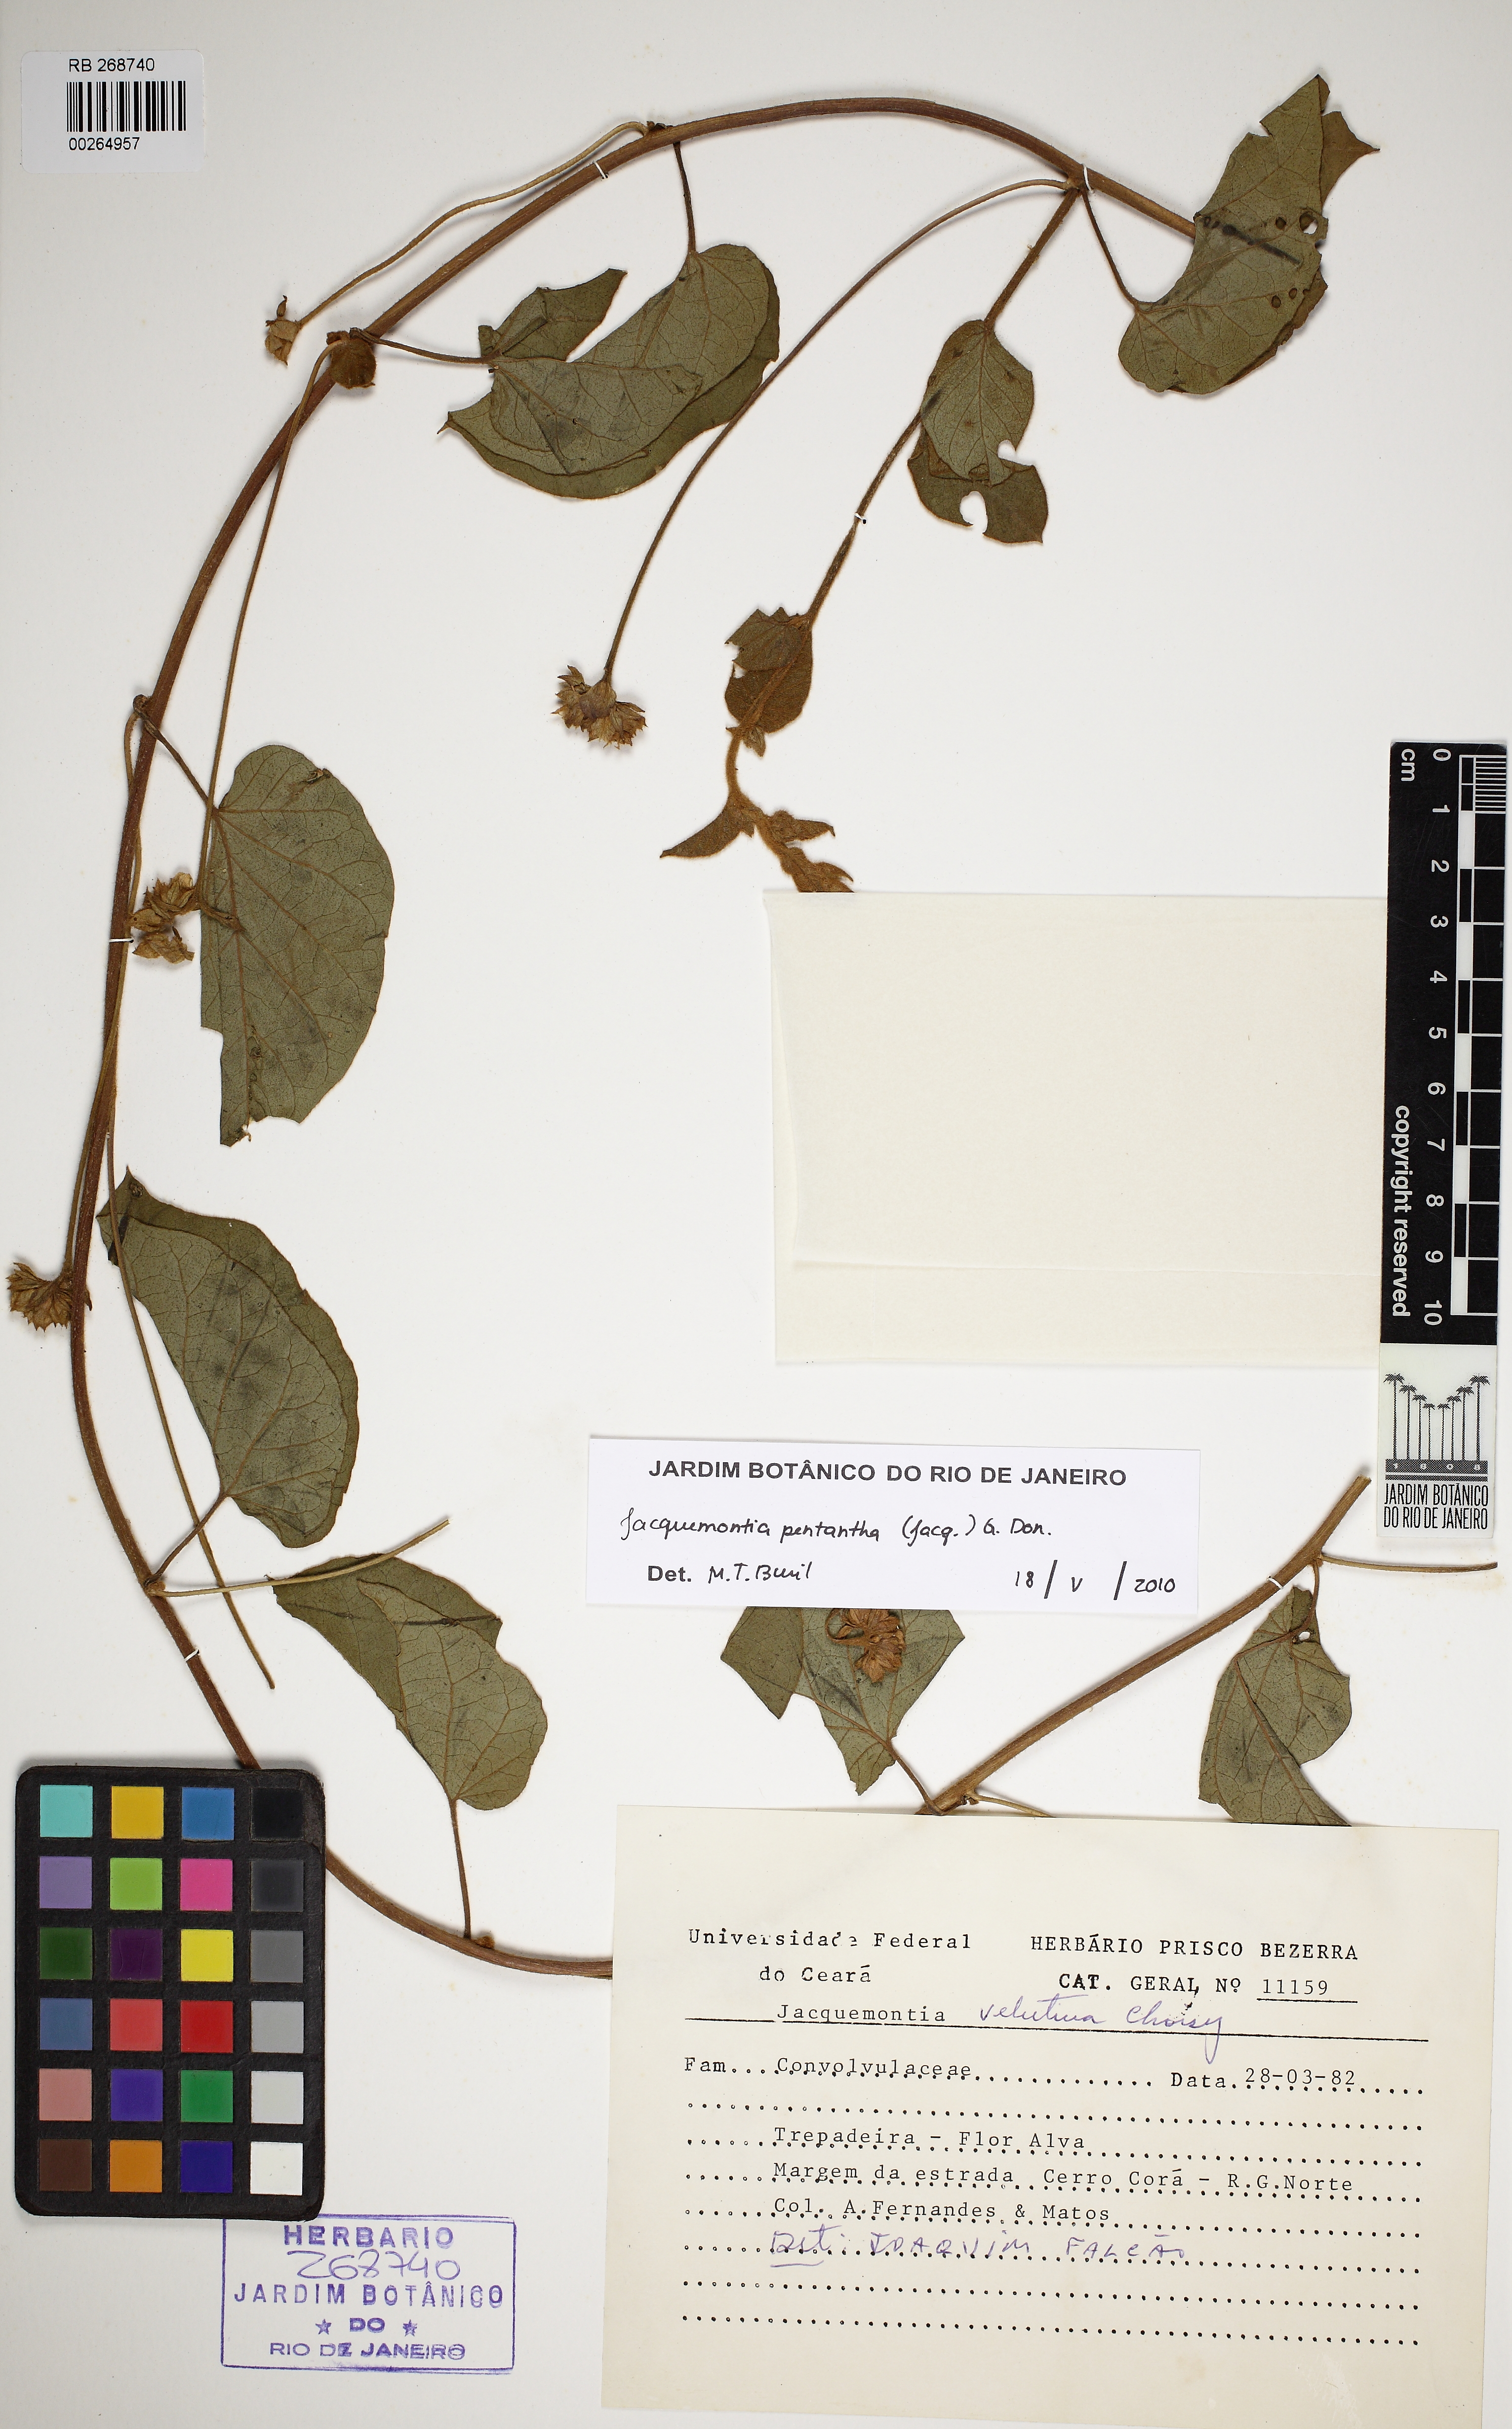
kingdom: Plantae
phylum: Tracheophyta
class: Magnoliopsida
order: Solanales
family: Convolvulaceae
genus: Jacquemontia
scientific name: Jacquemontia pentanthos
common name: Skyblue clustervine
